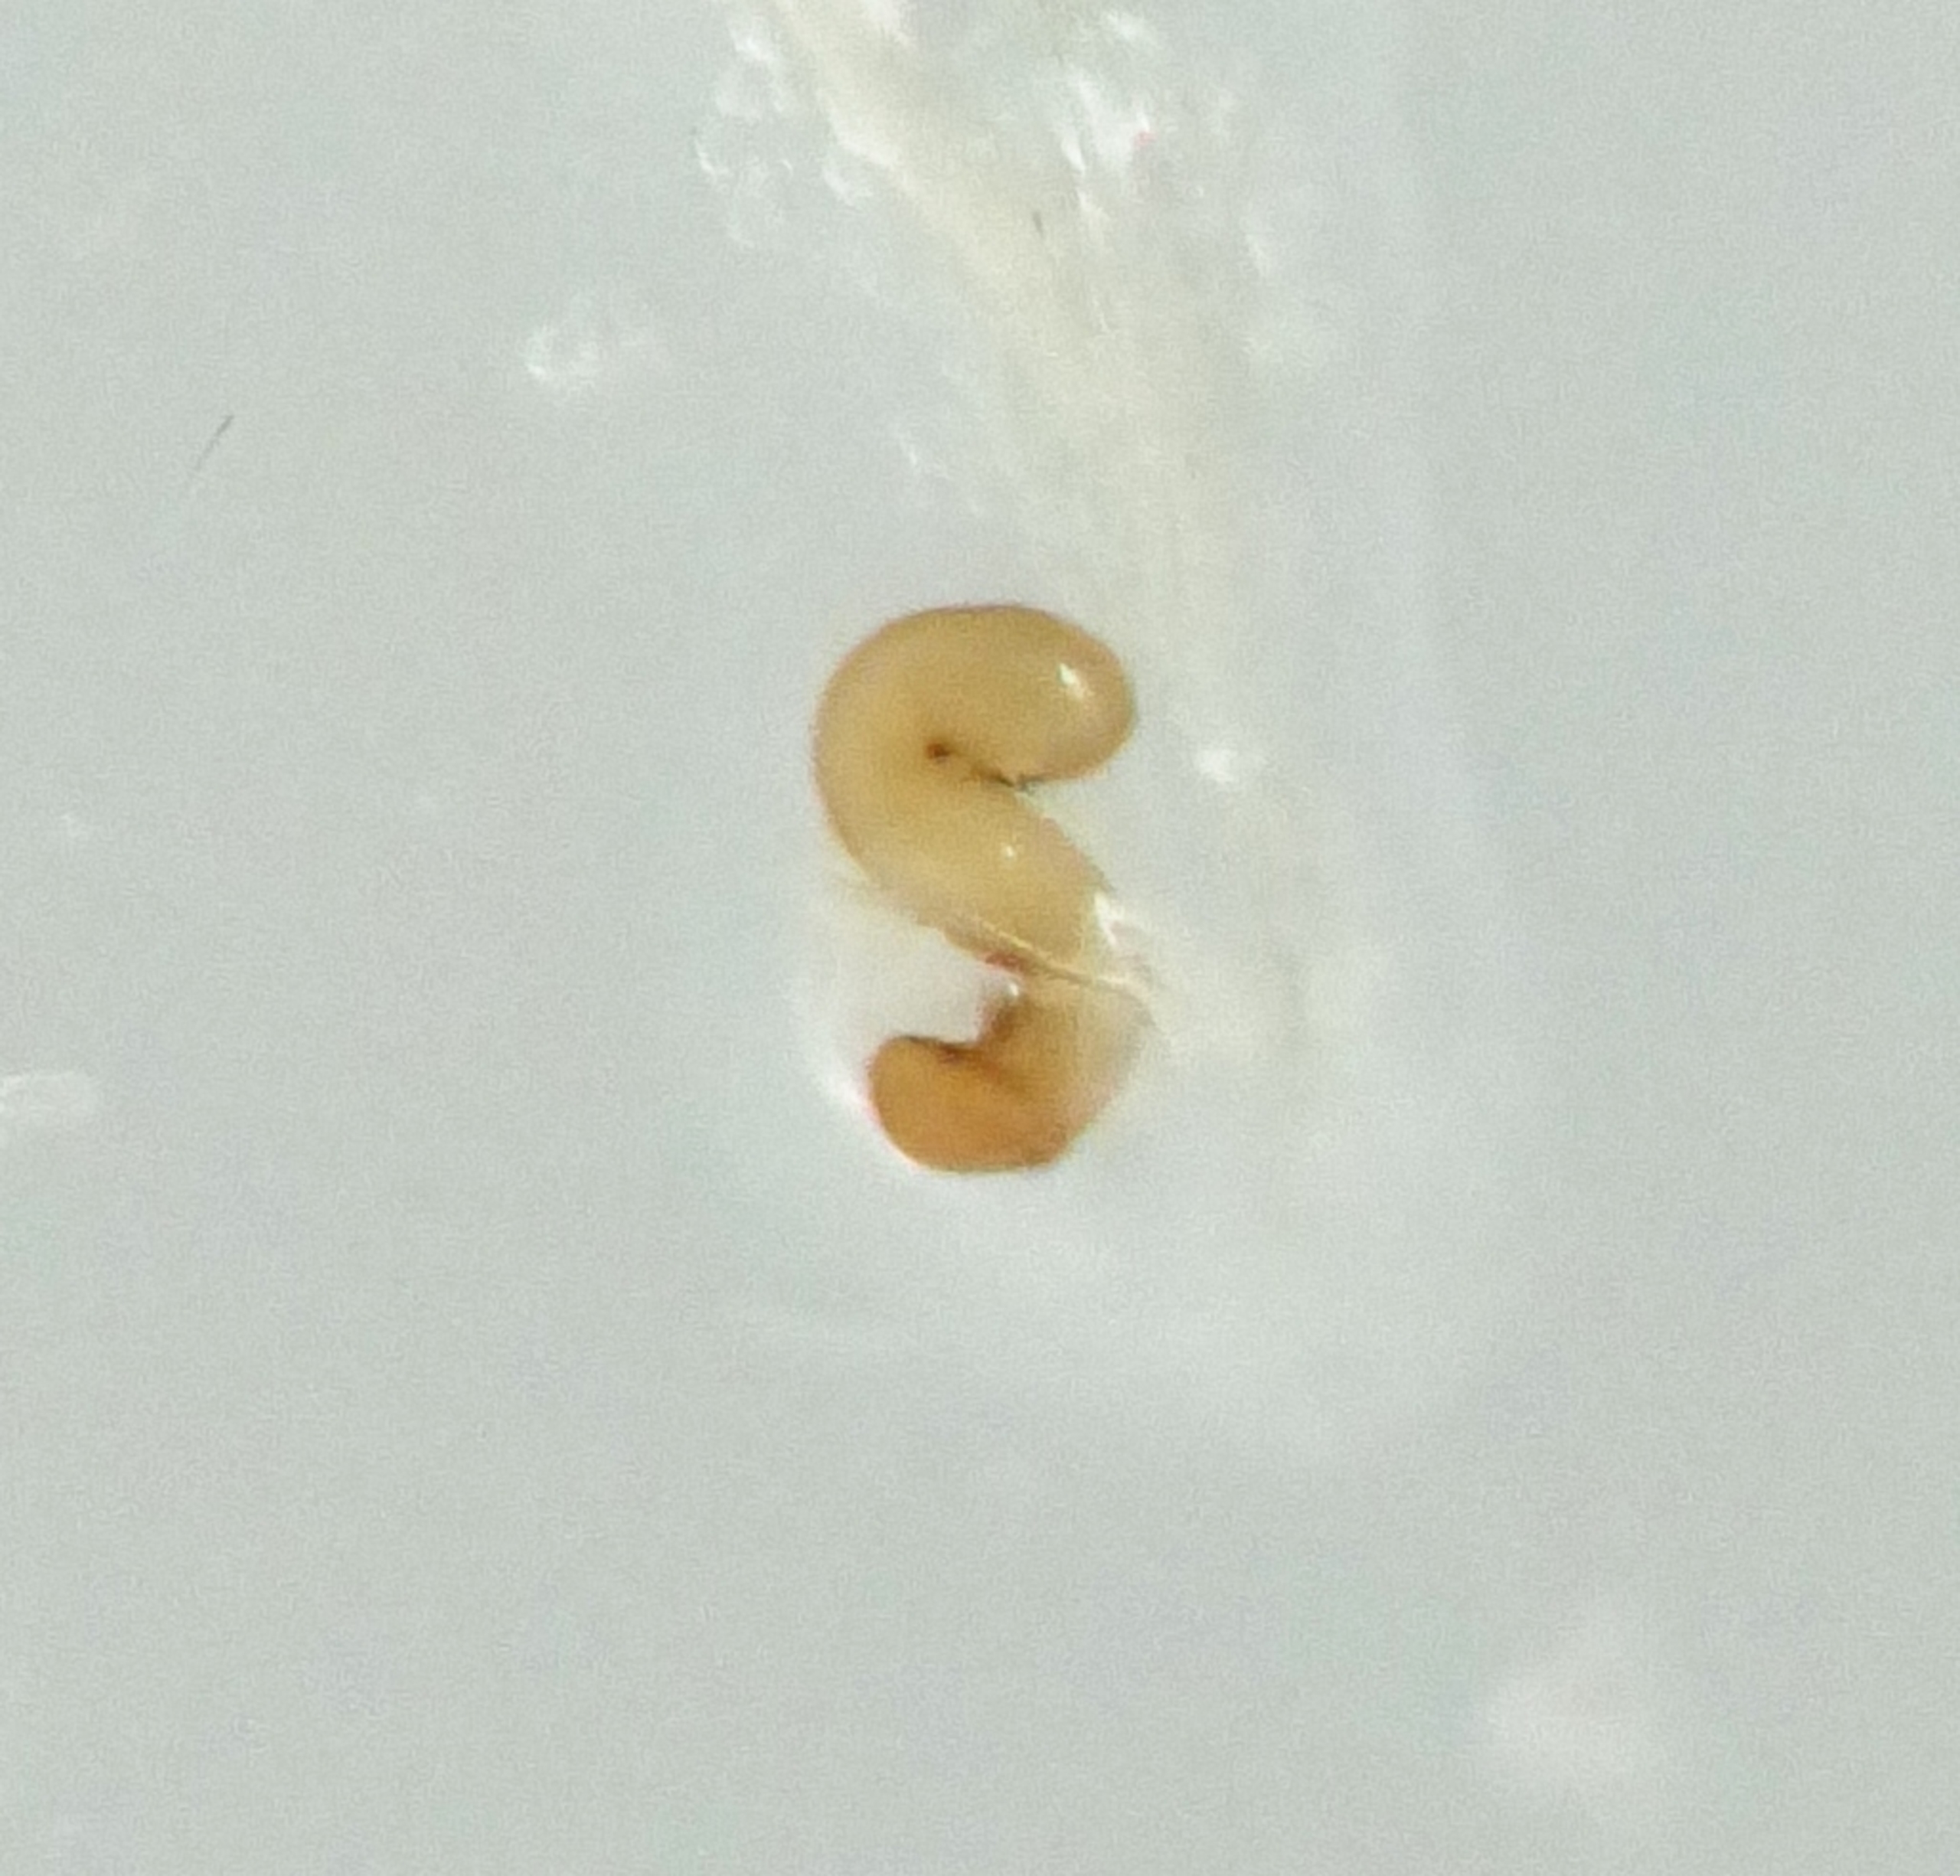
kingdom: Animalia
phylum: Arthropoda
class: Insecta
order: Coleoptera
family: Staphylinidae
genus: Nehemitropia
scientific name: Nehemitropia lividipennis
